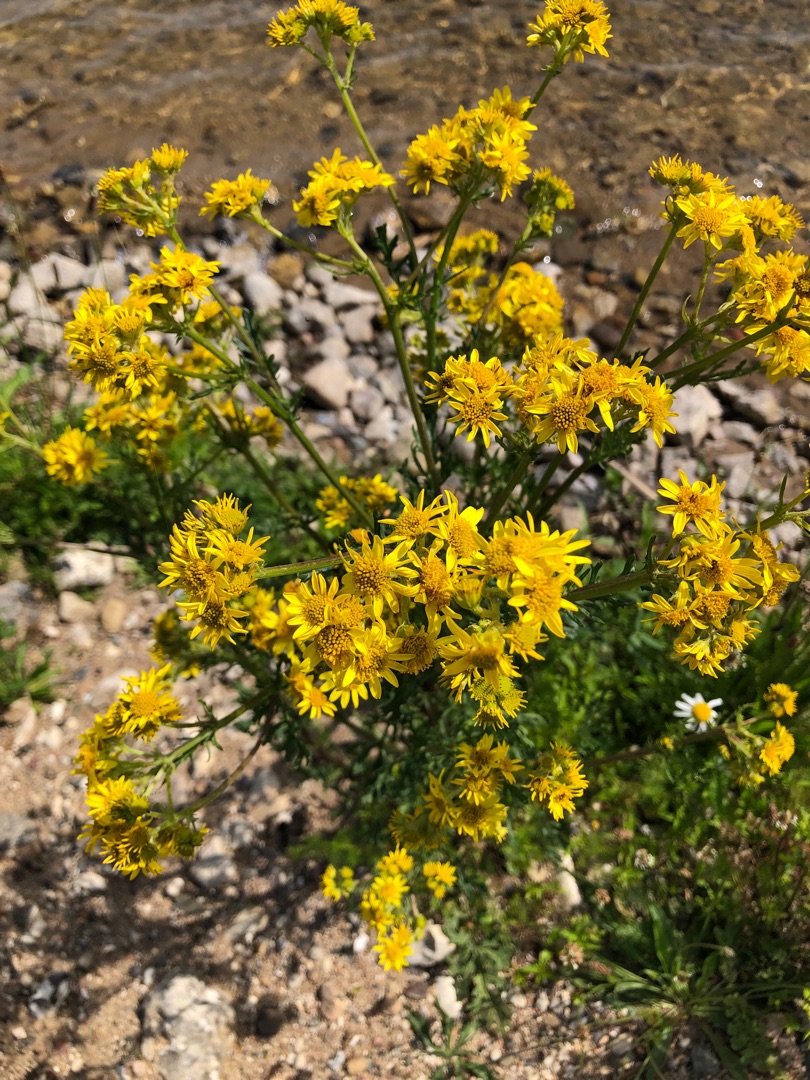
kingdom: Plantae
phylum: Tracheophyta
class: Magnoliopsida
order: Asterales
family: Asteraceae
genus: Jacobaea
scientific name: Jacobaea vulgaris
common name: Eng-brandbæger
